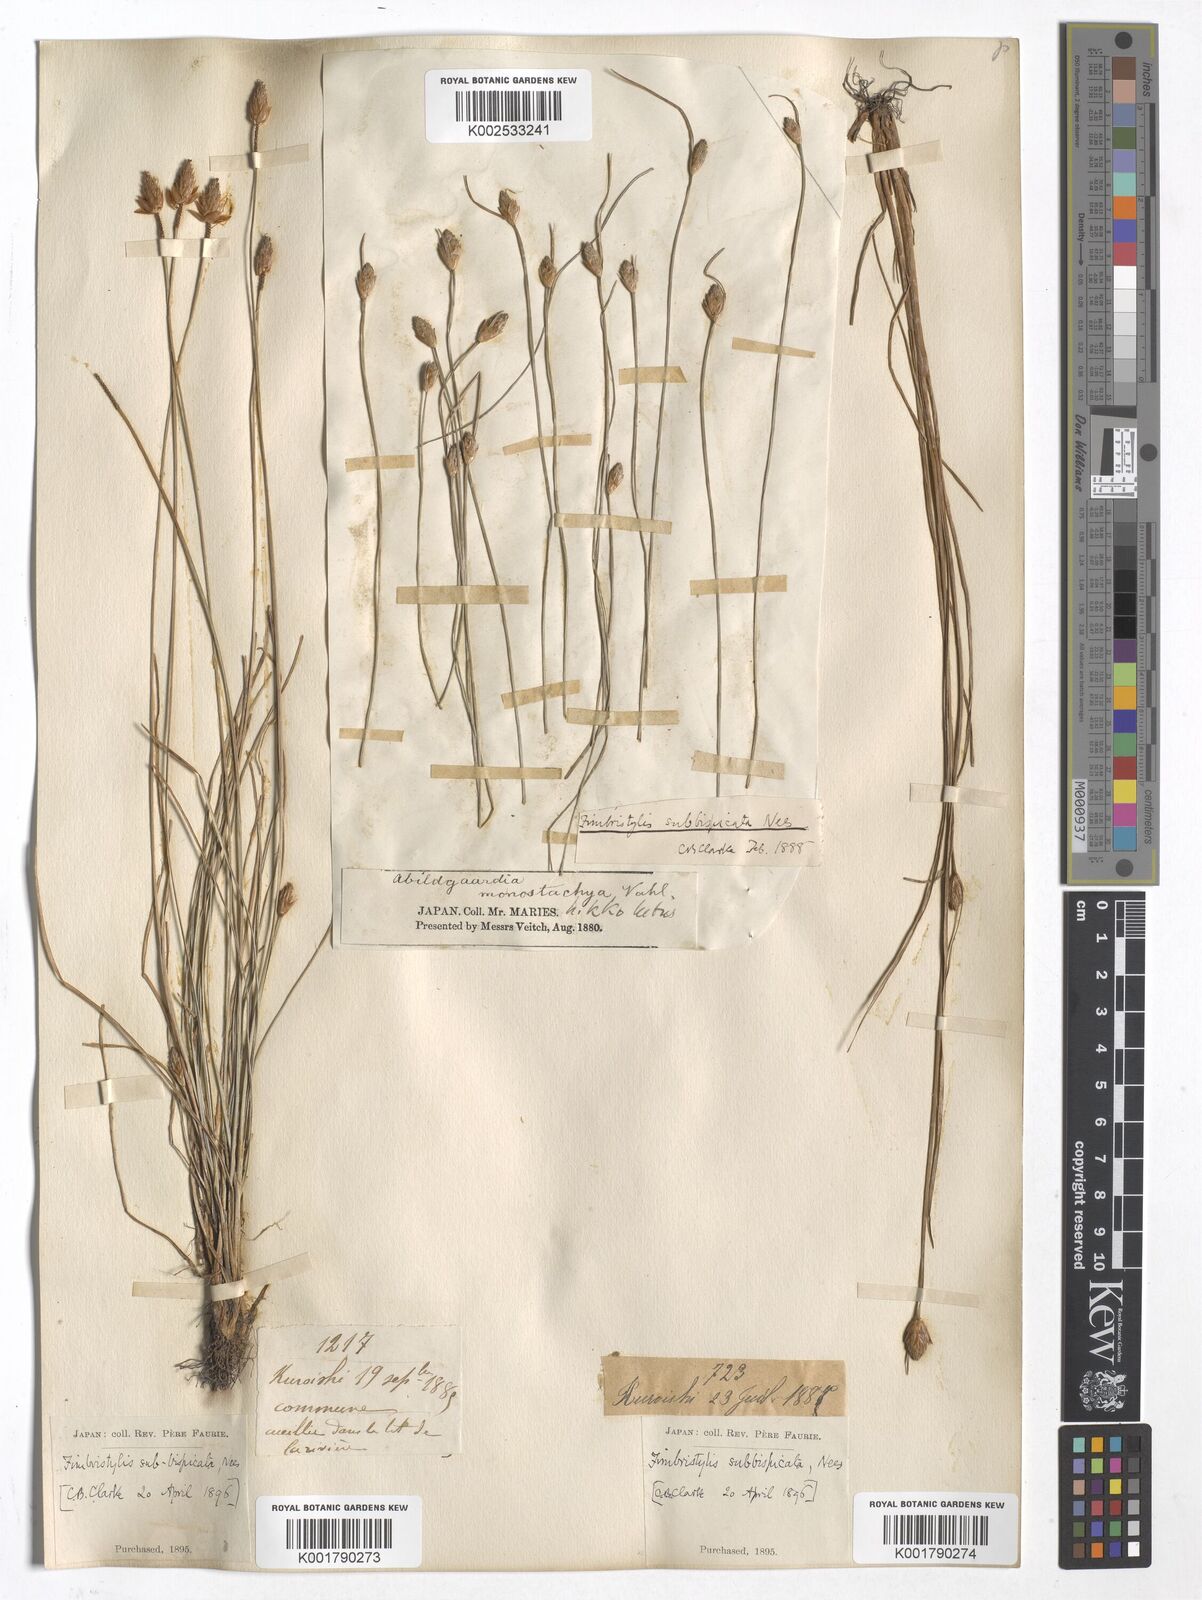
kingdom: Plantae
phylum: Tracheophyta
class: Liliopsida
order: Poales
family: Cyperaceae
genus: Fimbristylis
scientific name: Fimbristylis tristachya
